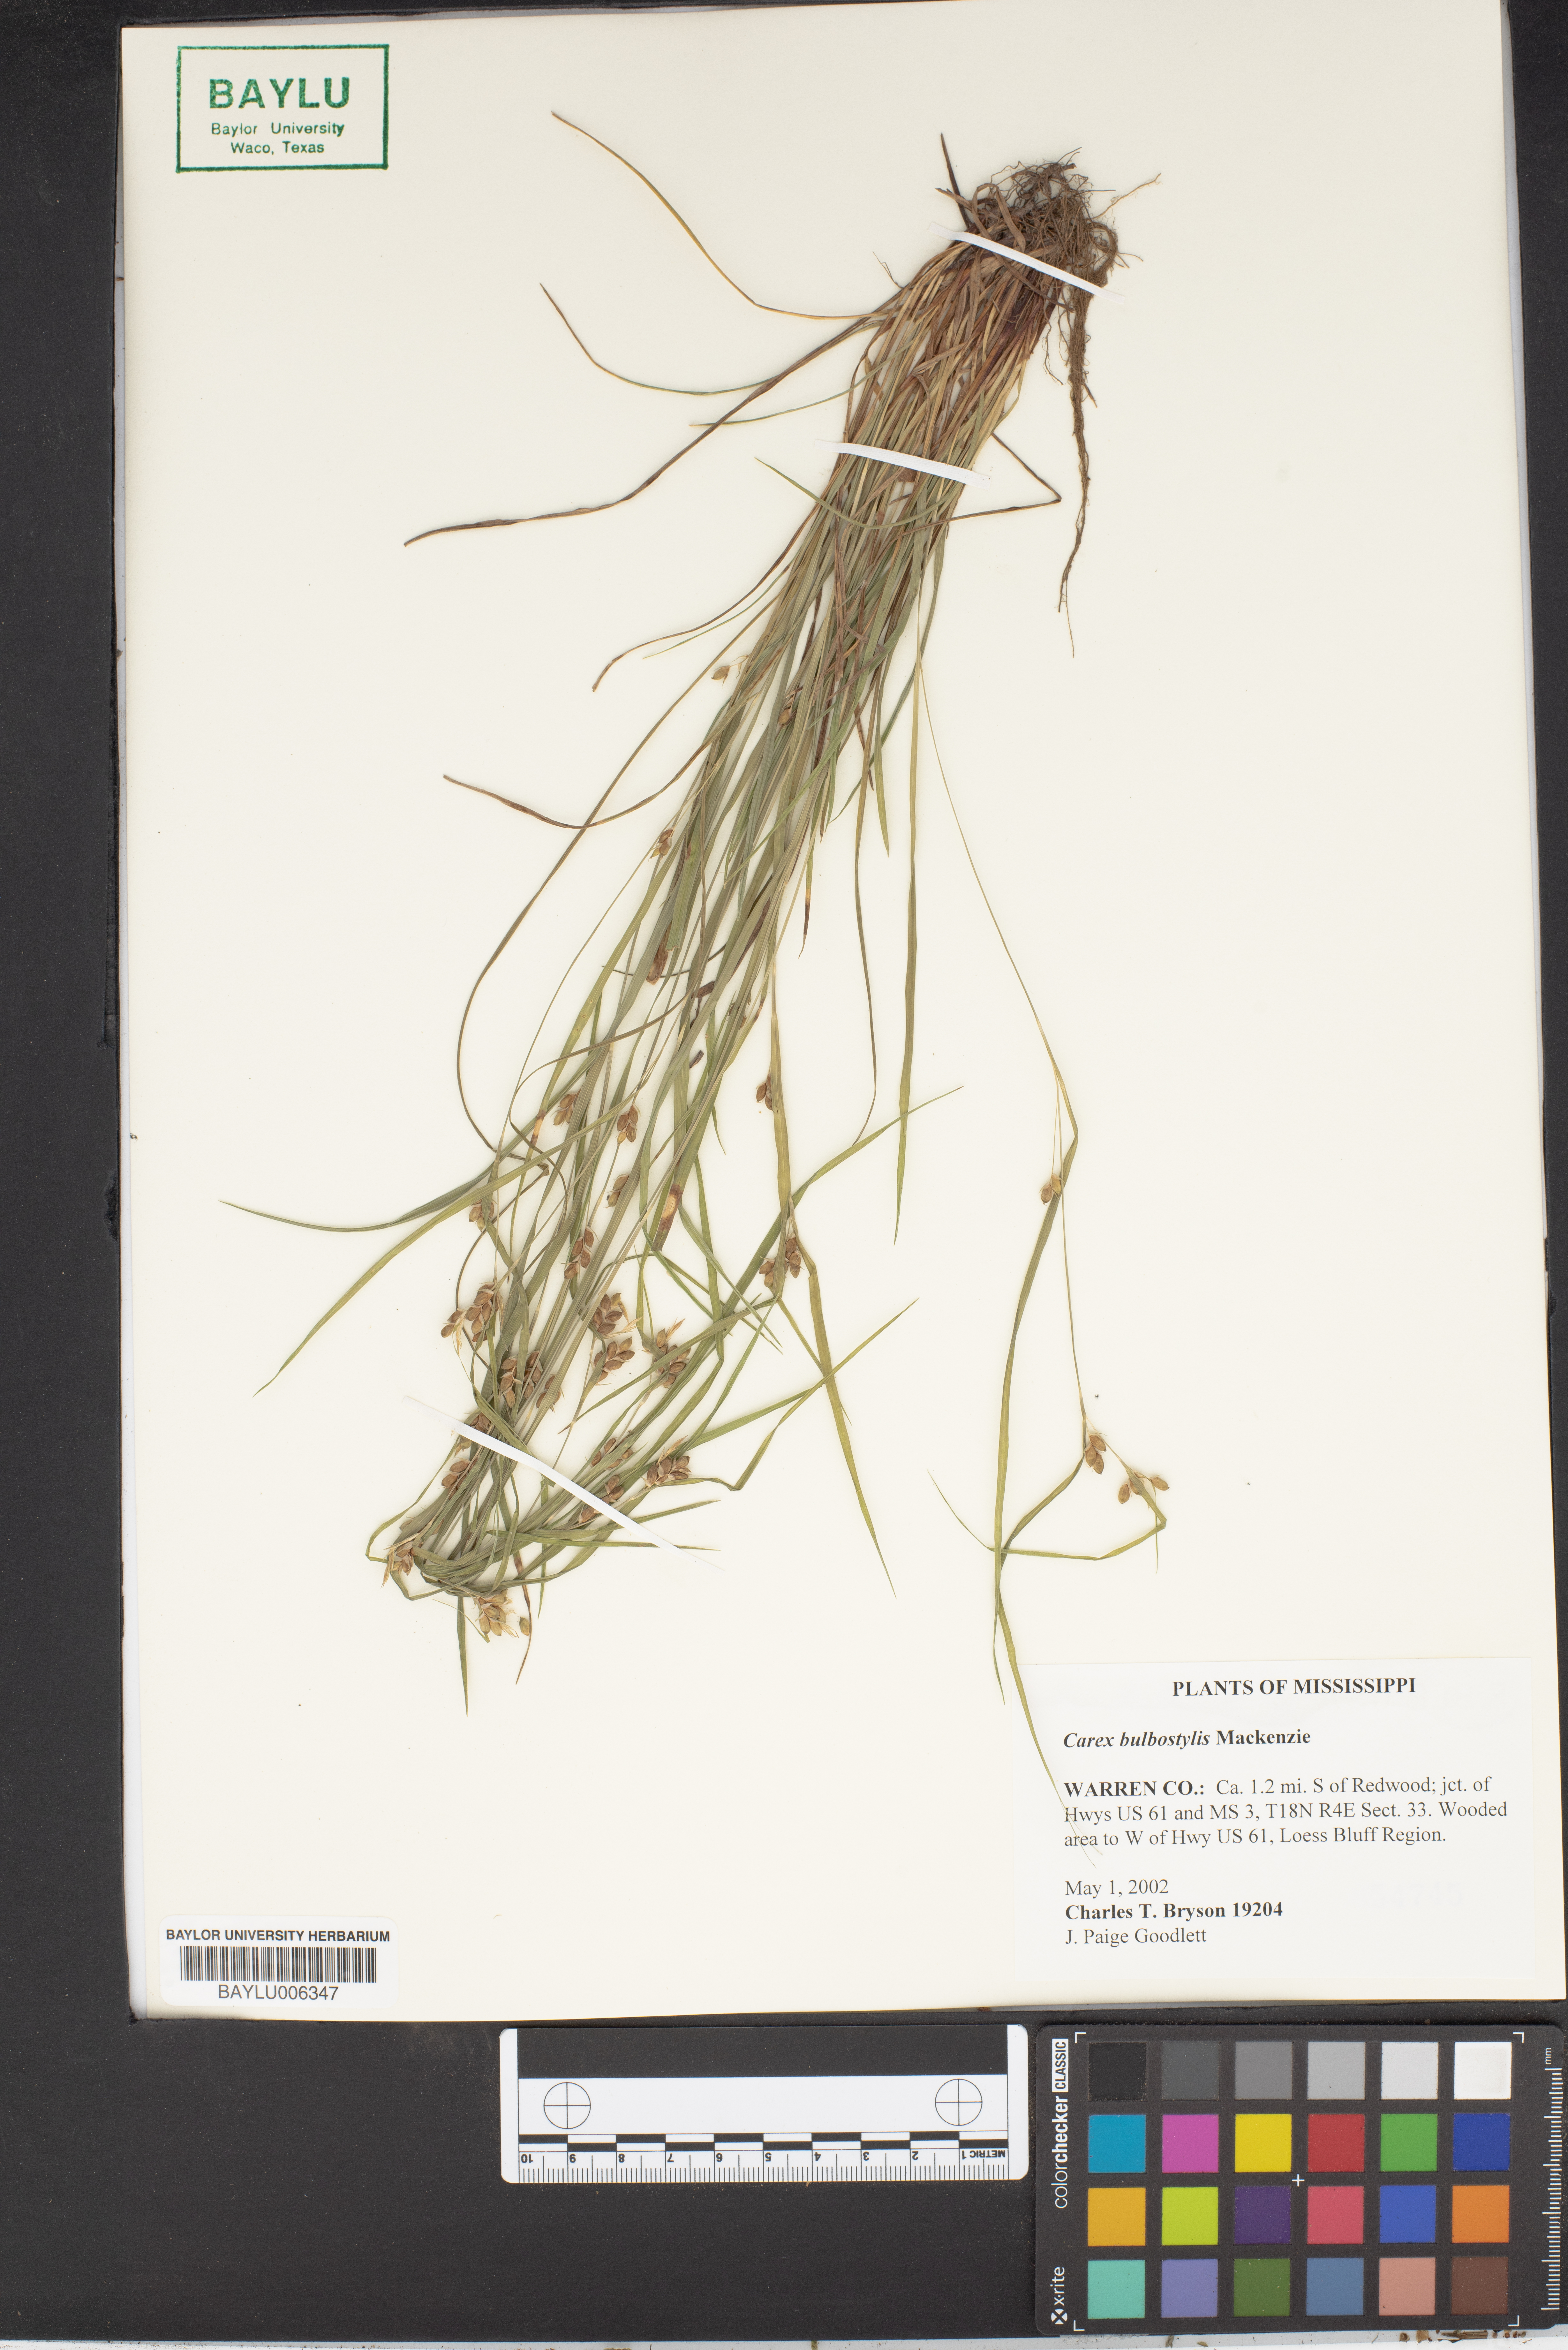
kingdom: Plantae
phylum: Tracheophyta
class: Liliopsida
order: Poales
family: Cyperaceae
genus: Carex
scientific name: Carex bulbostylis
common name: Eastern narrowleaf sedge
